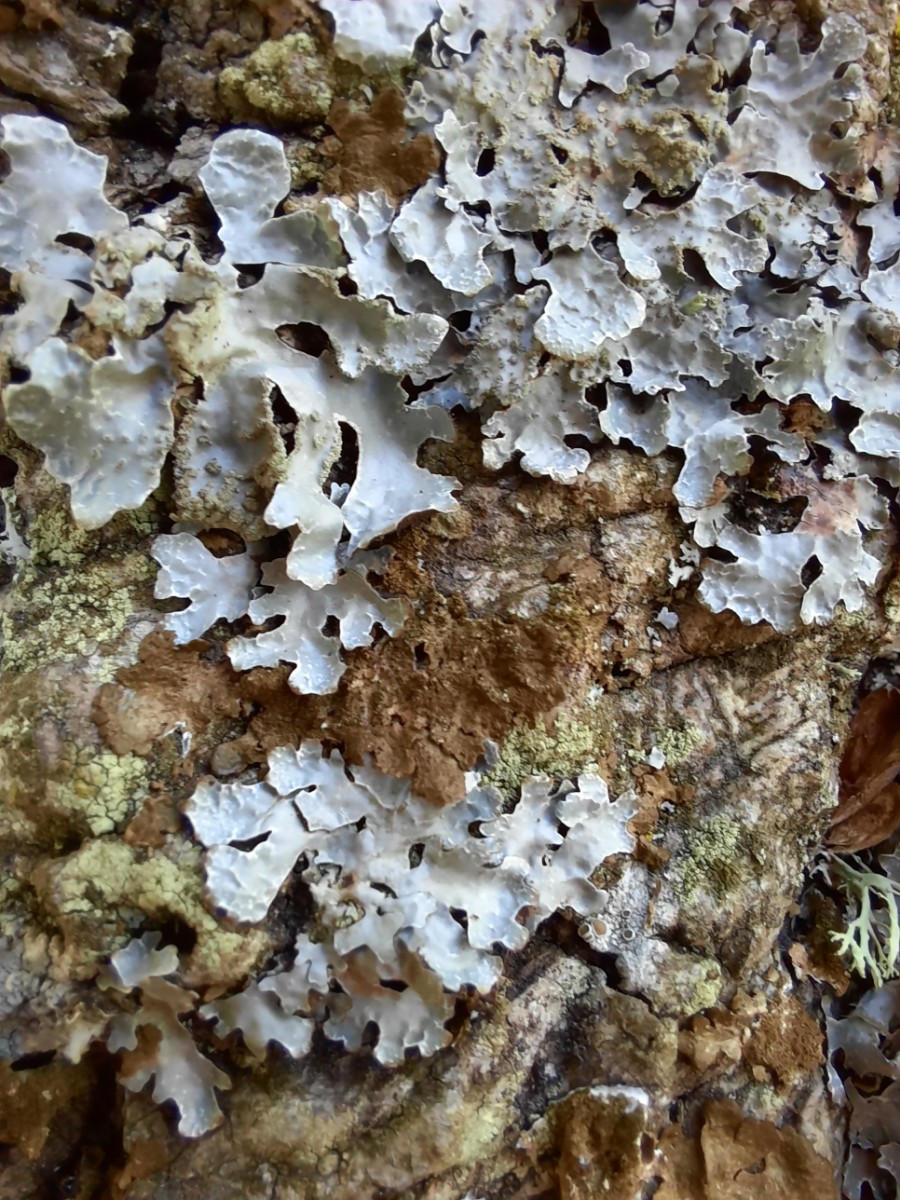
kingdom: Fungi
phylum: Ascomycota
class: Lecanoromycetes
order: Lecanorales
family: Parmeliaceae
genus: Parmelia
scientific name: Parmelia sulcata
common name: rynket skållav
